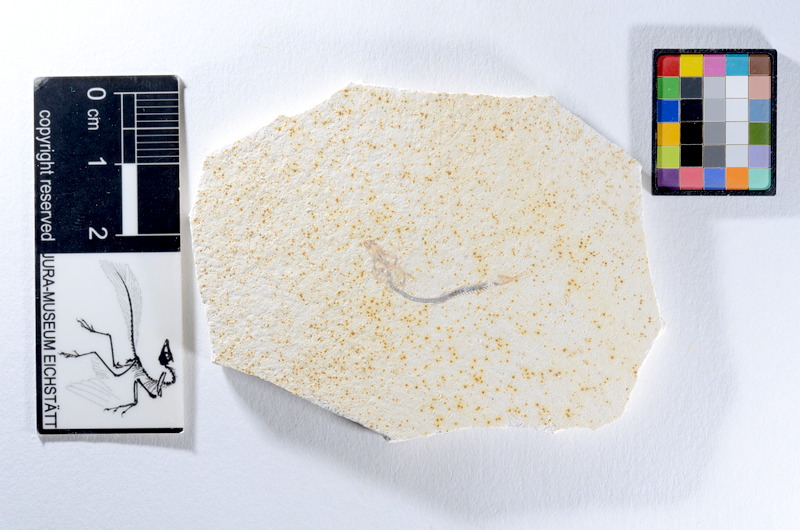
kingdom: Animalia
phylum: Chordata
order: Salmoniformes
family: Orthogonikleithridae
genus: Orthogonikleithrus
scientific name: Orthogonikleithrus hoelli
